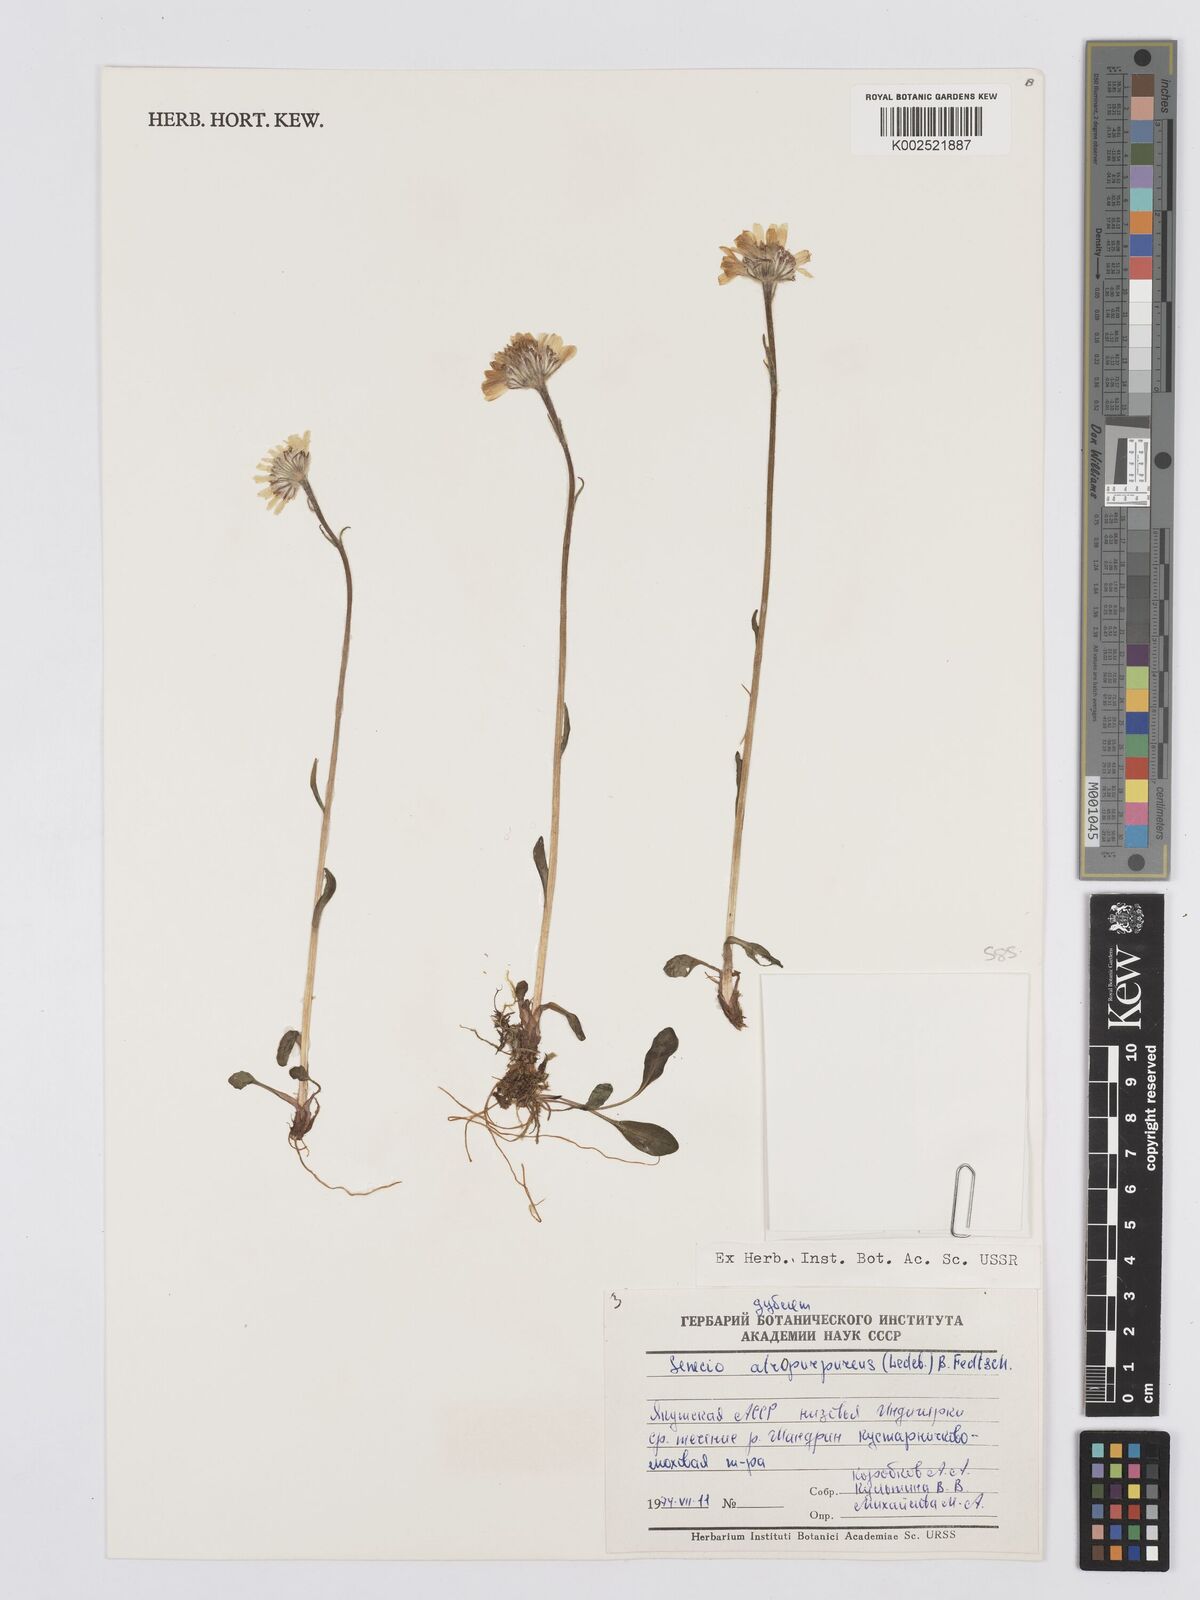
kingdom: Plantae
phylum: Tracheophyta
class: Magnoliopsida
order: Asterales
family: Asteraceae
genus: Tephroseris
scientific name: Tephroseris integrifolia
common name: Field fleawort
